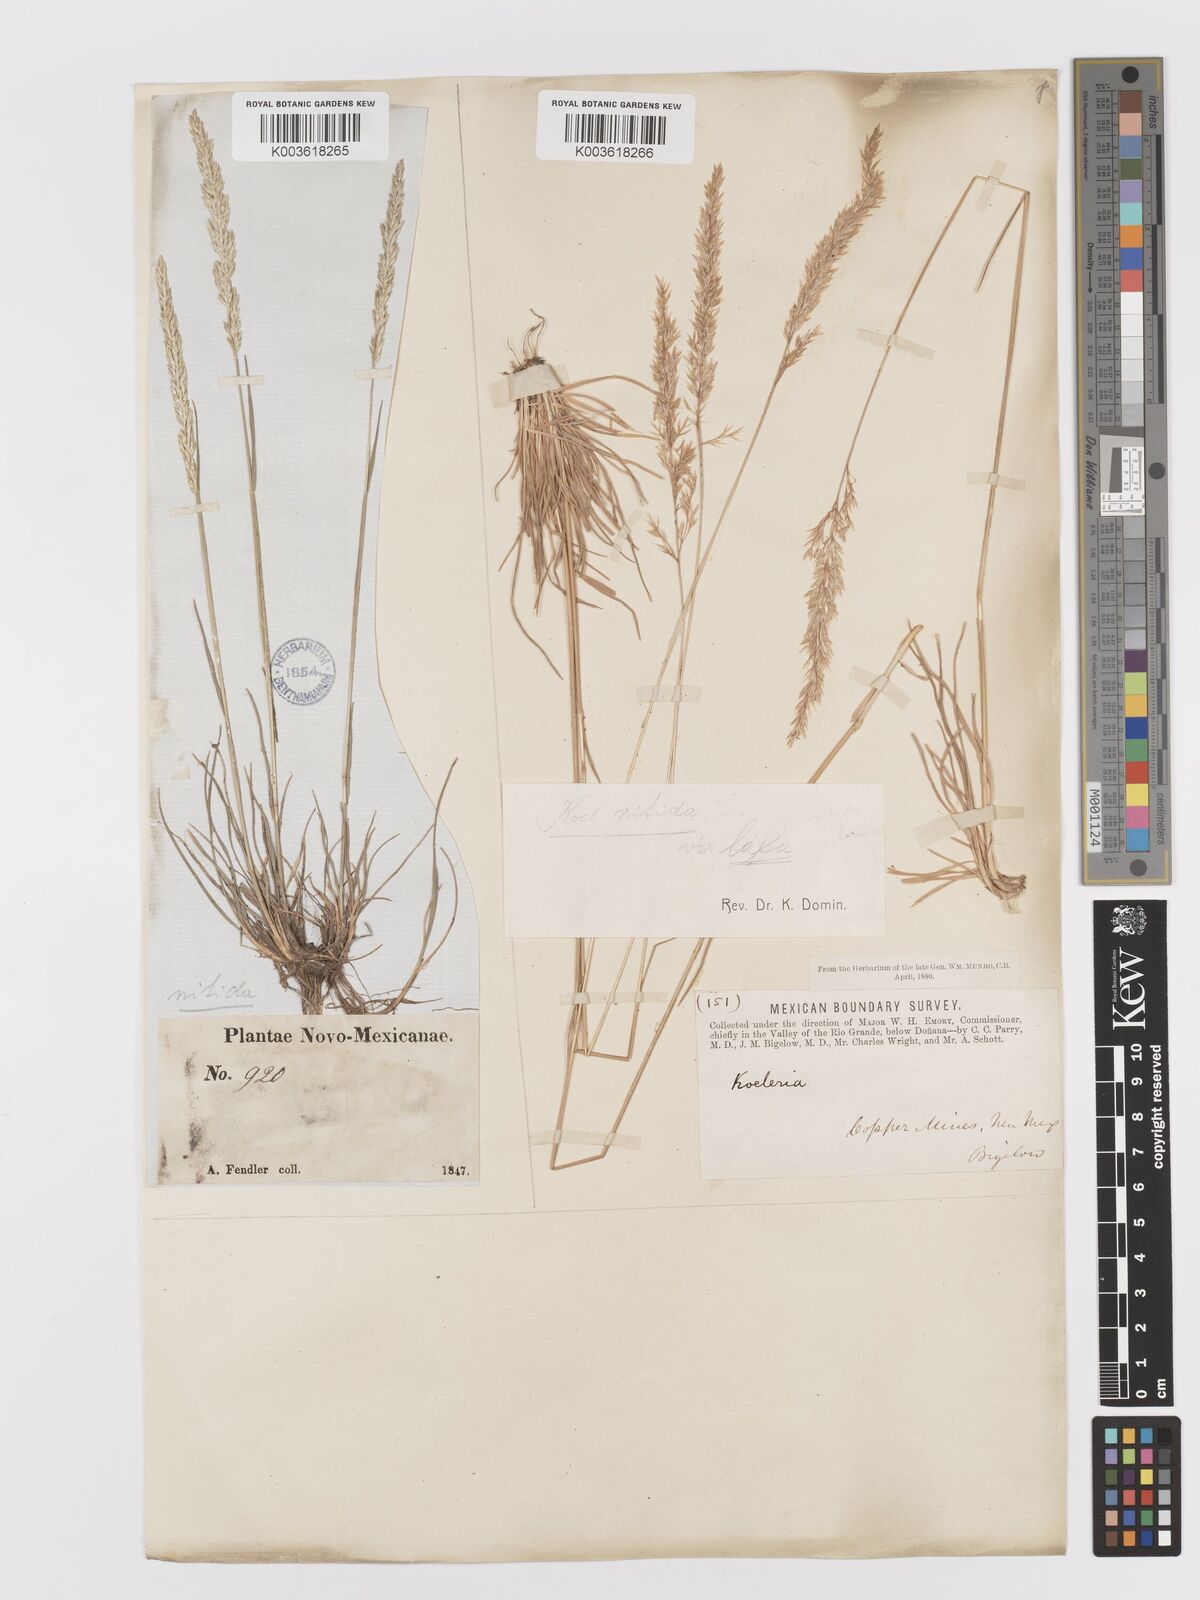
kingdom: Plantae
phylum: Tracheophyta
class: Liliopsida
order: Poales
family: Poaceae
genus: Koeleria
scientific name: Koeleria macrantha
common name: Crested hair-grass
